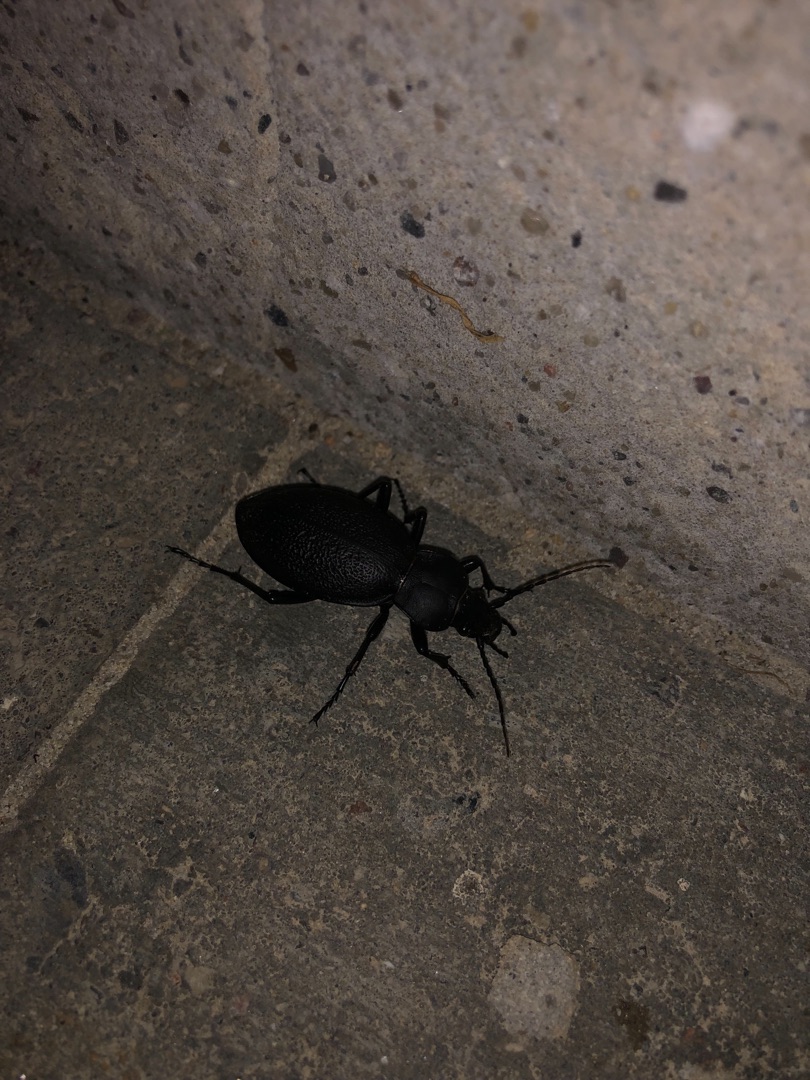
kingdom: Animalia
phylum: Arthropoda
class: Insecta
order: Coleoptera
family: Carabidae
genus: Carabus
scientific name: Carabus coriaceus
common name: Læderløber
